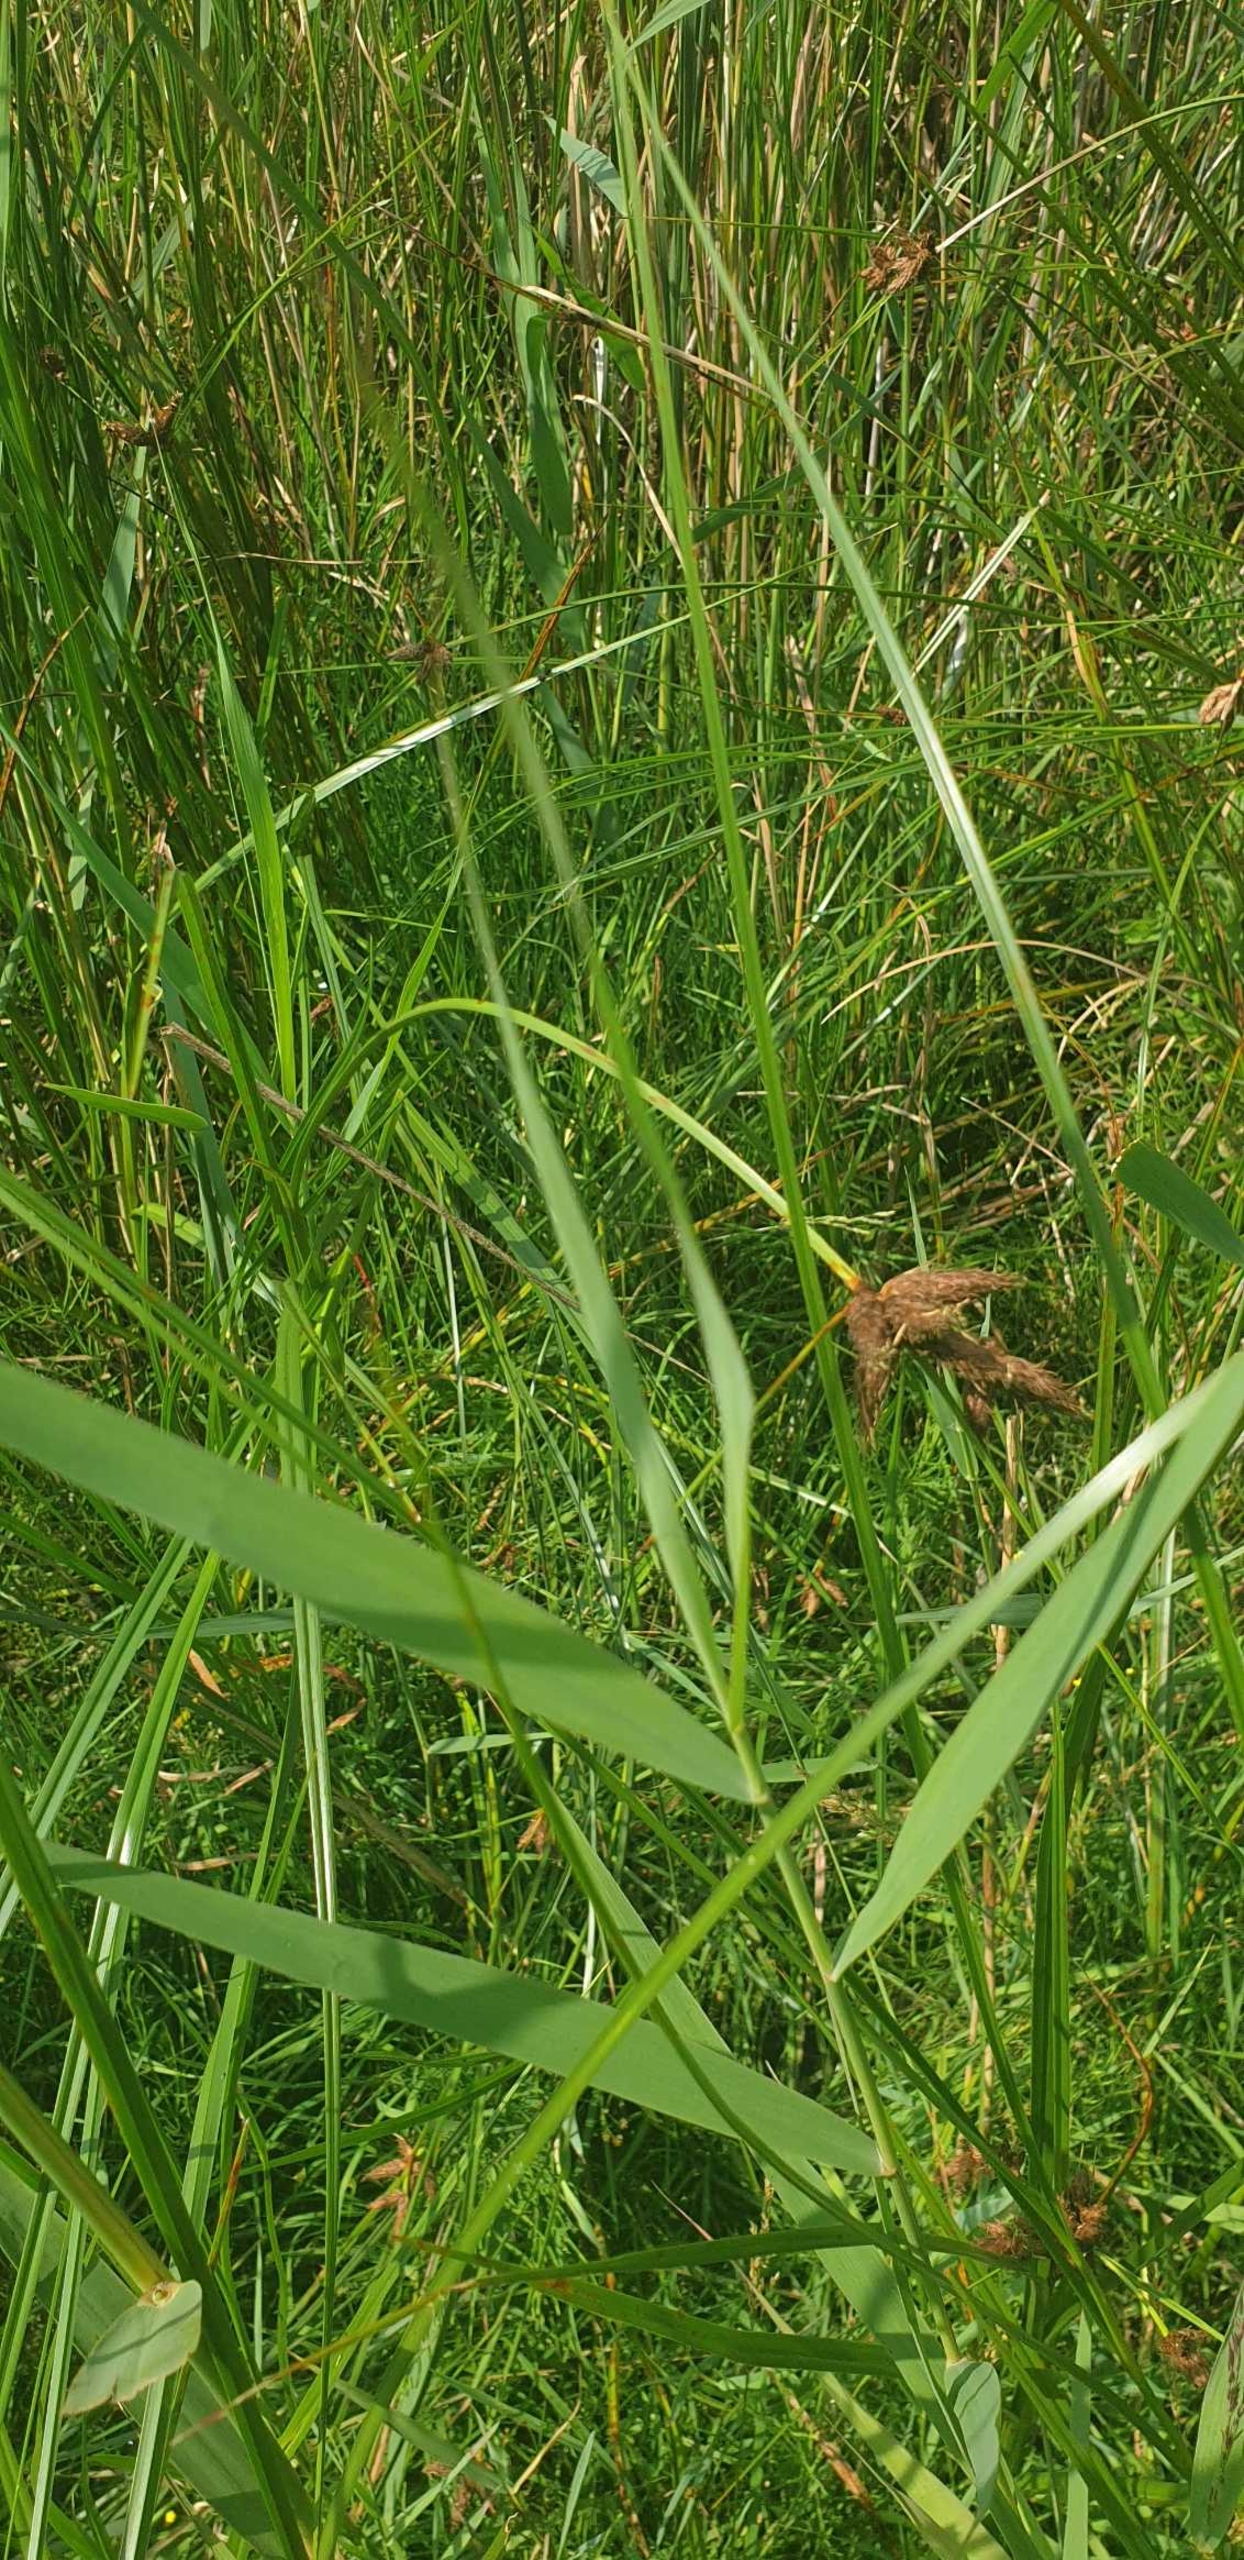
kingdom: Plantae
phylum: Tracheophyta
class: Liliopsida
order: Poales
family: Cyperaceae
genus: Bolboschoenus
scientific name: Bolboschoenus maritimus
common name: Strand-kogleaks
